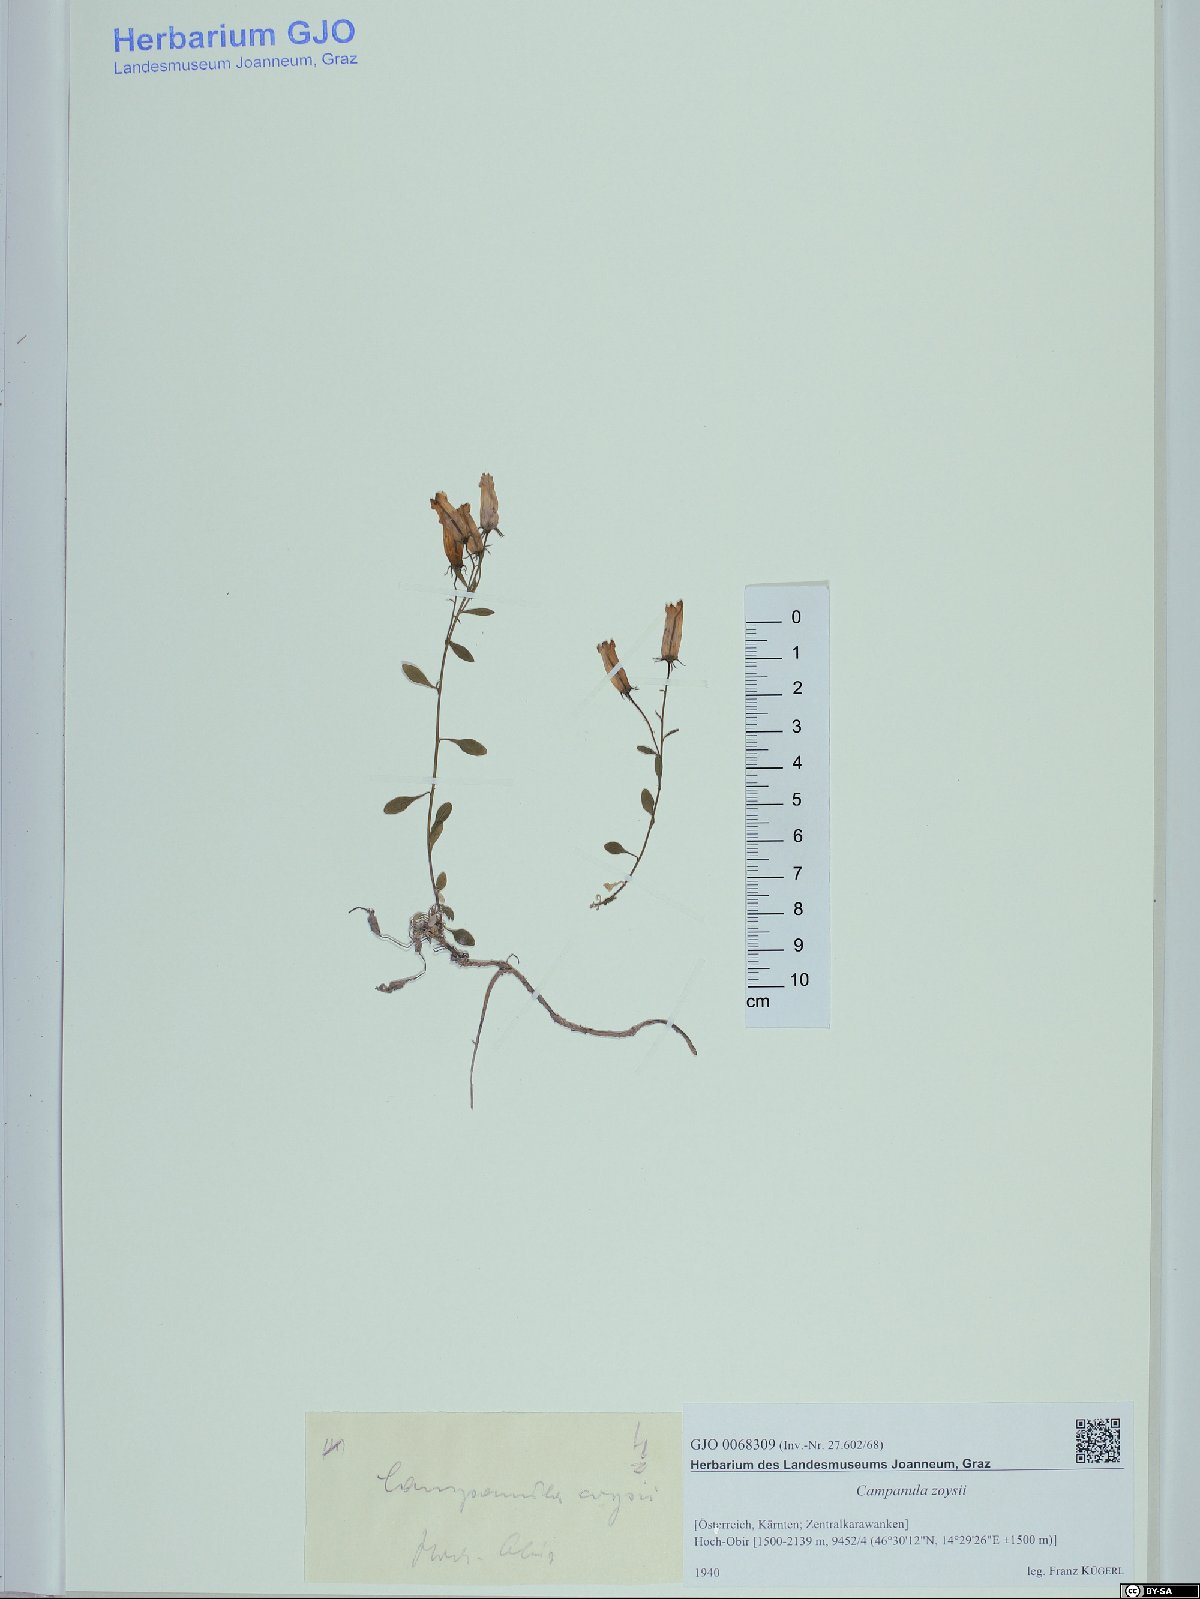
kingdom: Plantae
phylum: Tracheophyta
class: Magnoliopsida
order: Asterales
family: Campanulaceae
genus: Favratia
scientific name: Favratia zoysii
